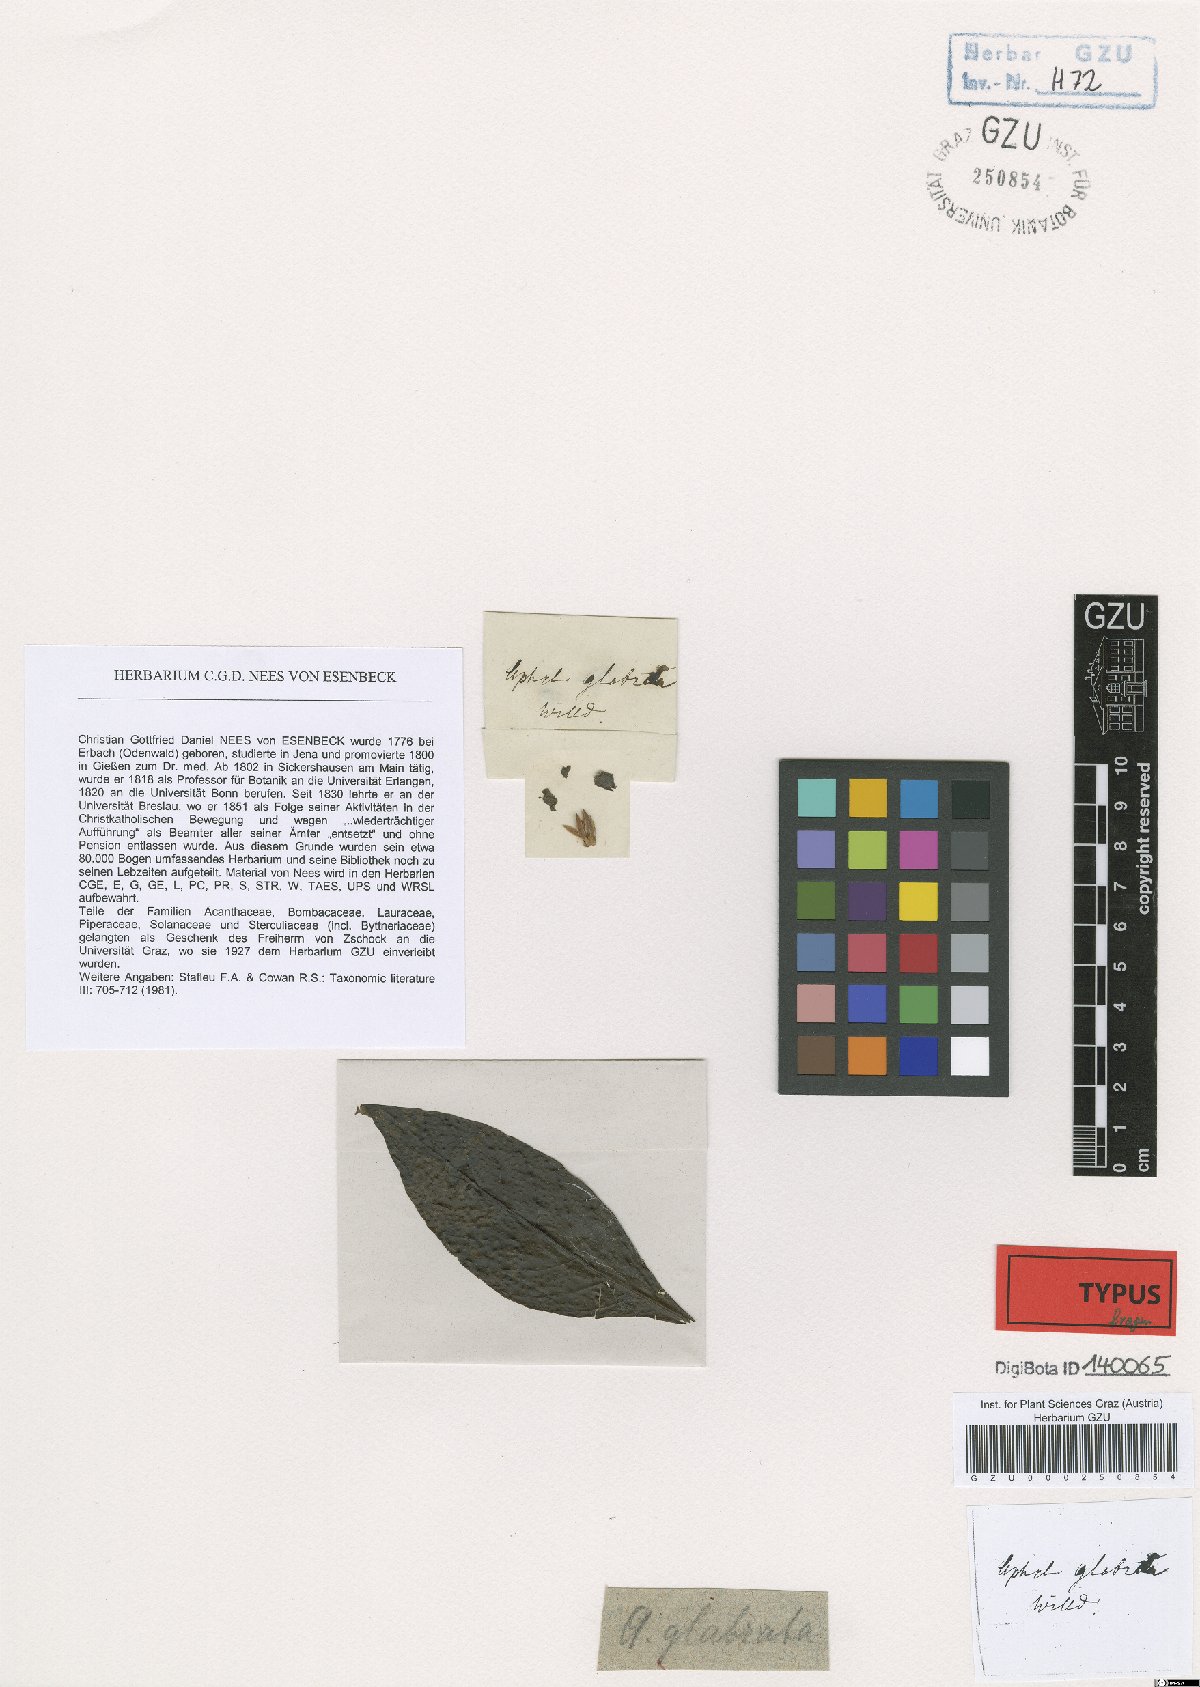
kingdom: Plantae
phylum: Tracheophyta
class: Magnoliopsida
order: Lamiales
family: Acanthaceae
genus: Aphelandra
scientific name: Aphelandra glabrata
